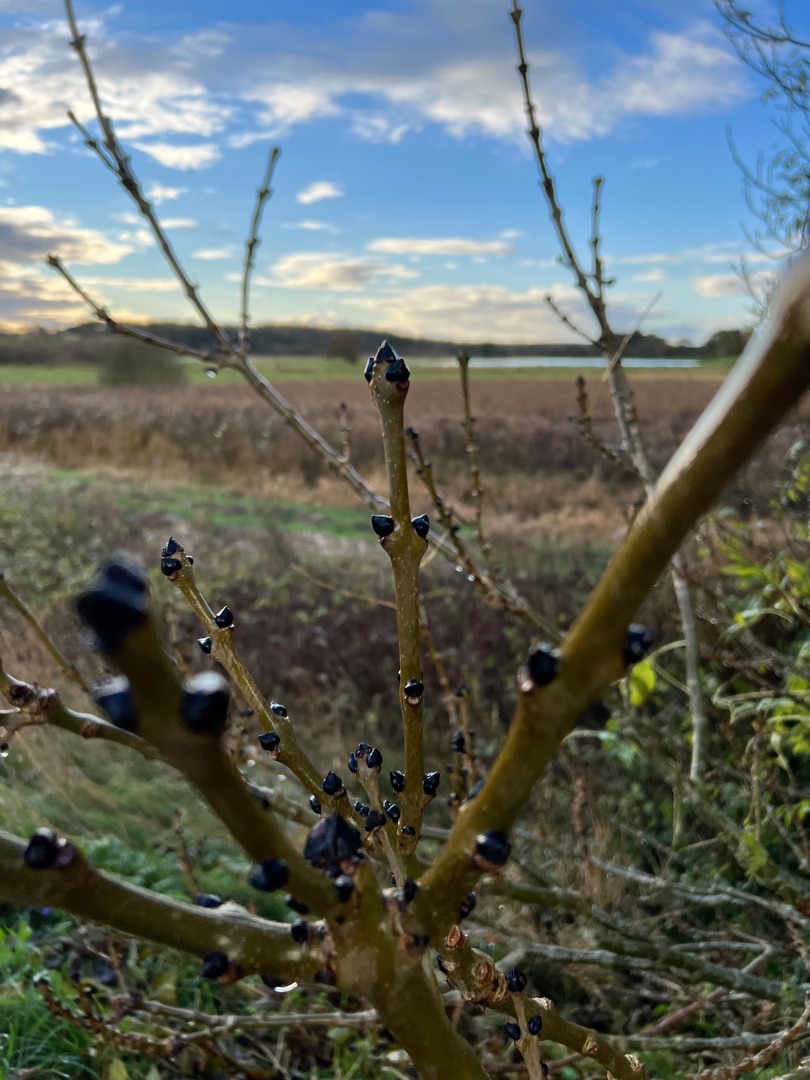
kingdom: Plantae
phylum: Tracheophyta
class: Magnoliopsida
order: Lamiales
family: Oleaceae
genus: Fraxinus
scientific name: Fraxinus excelsior
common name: Ask
